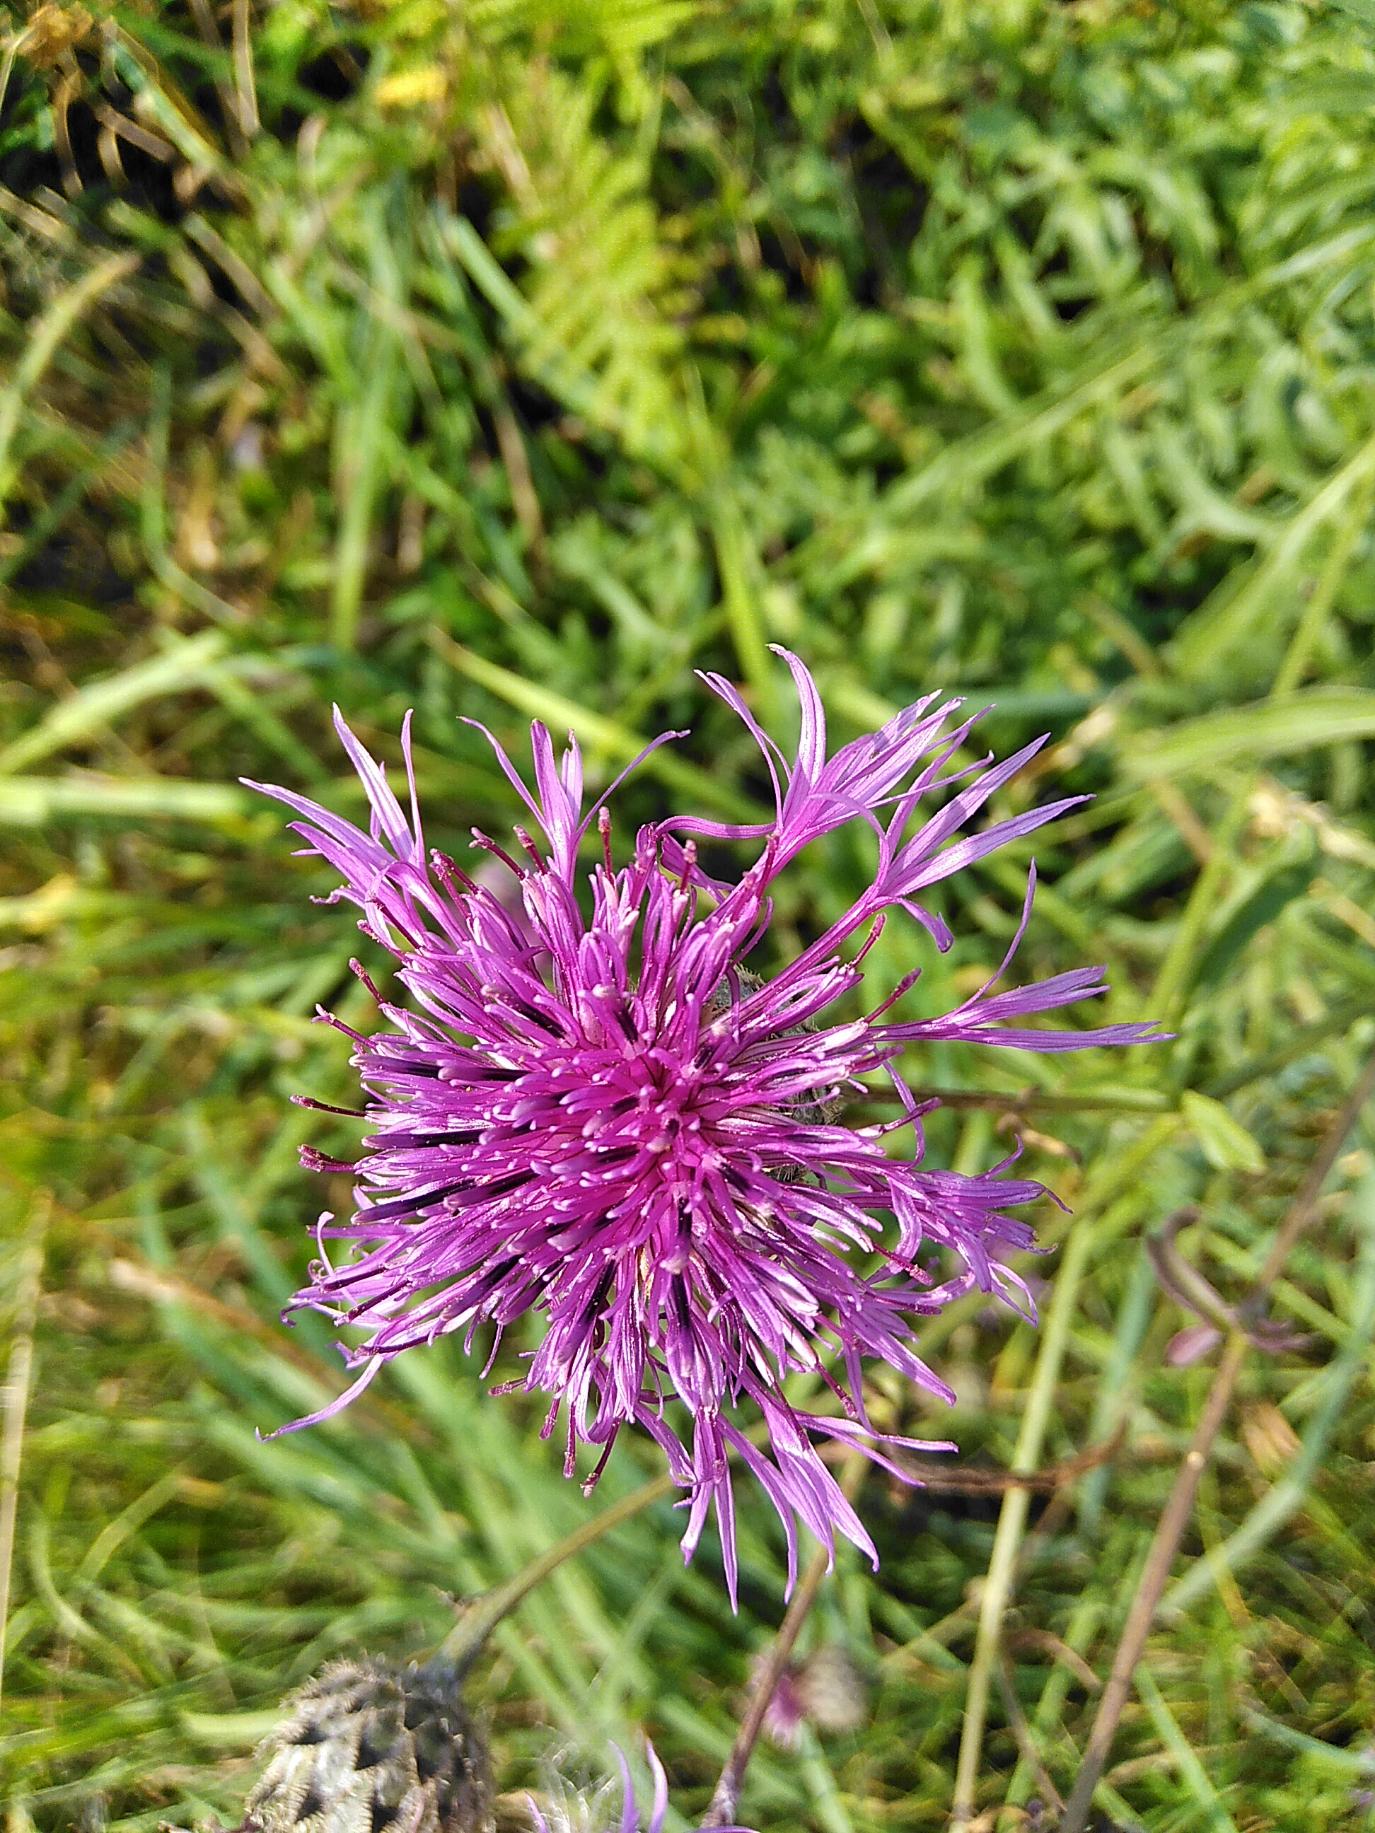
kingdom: Plantae
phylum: Tracheophyta
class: Magnoliopsida
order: Asterales
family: Asteraceae
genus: Centaurea
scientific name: Centaurea scabiosa
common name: Stor knopurt
